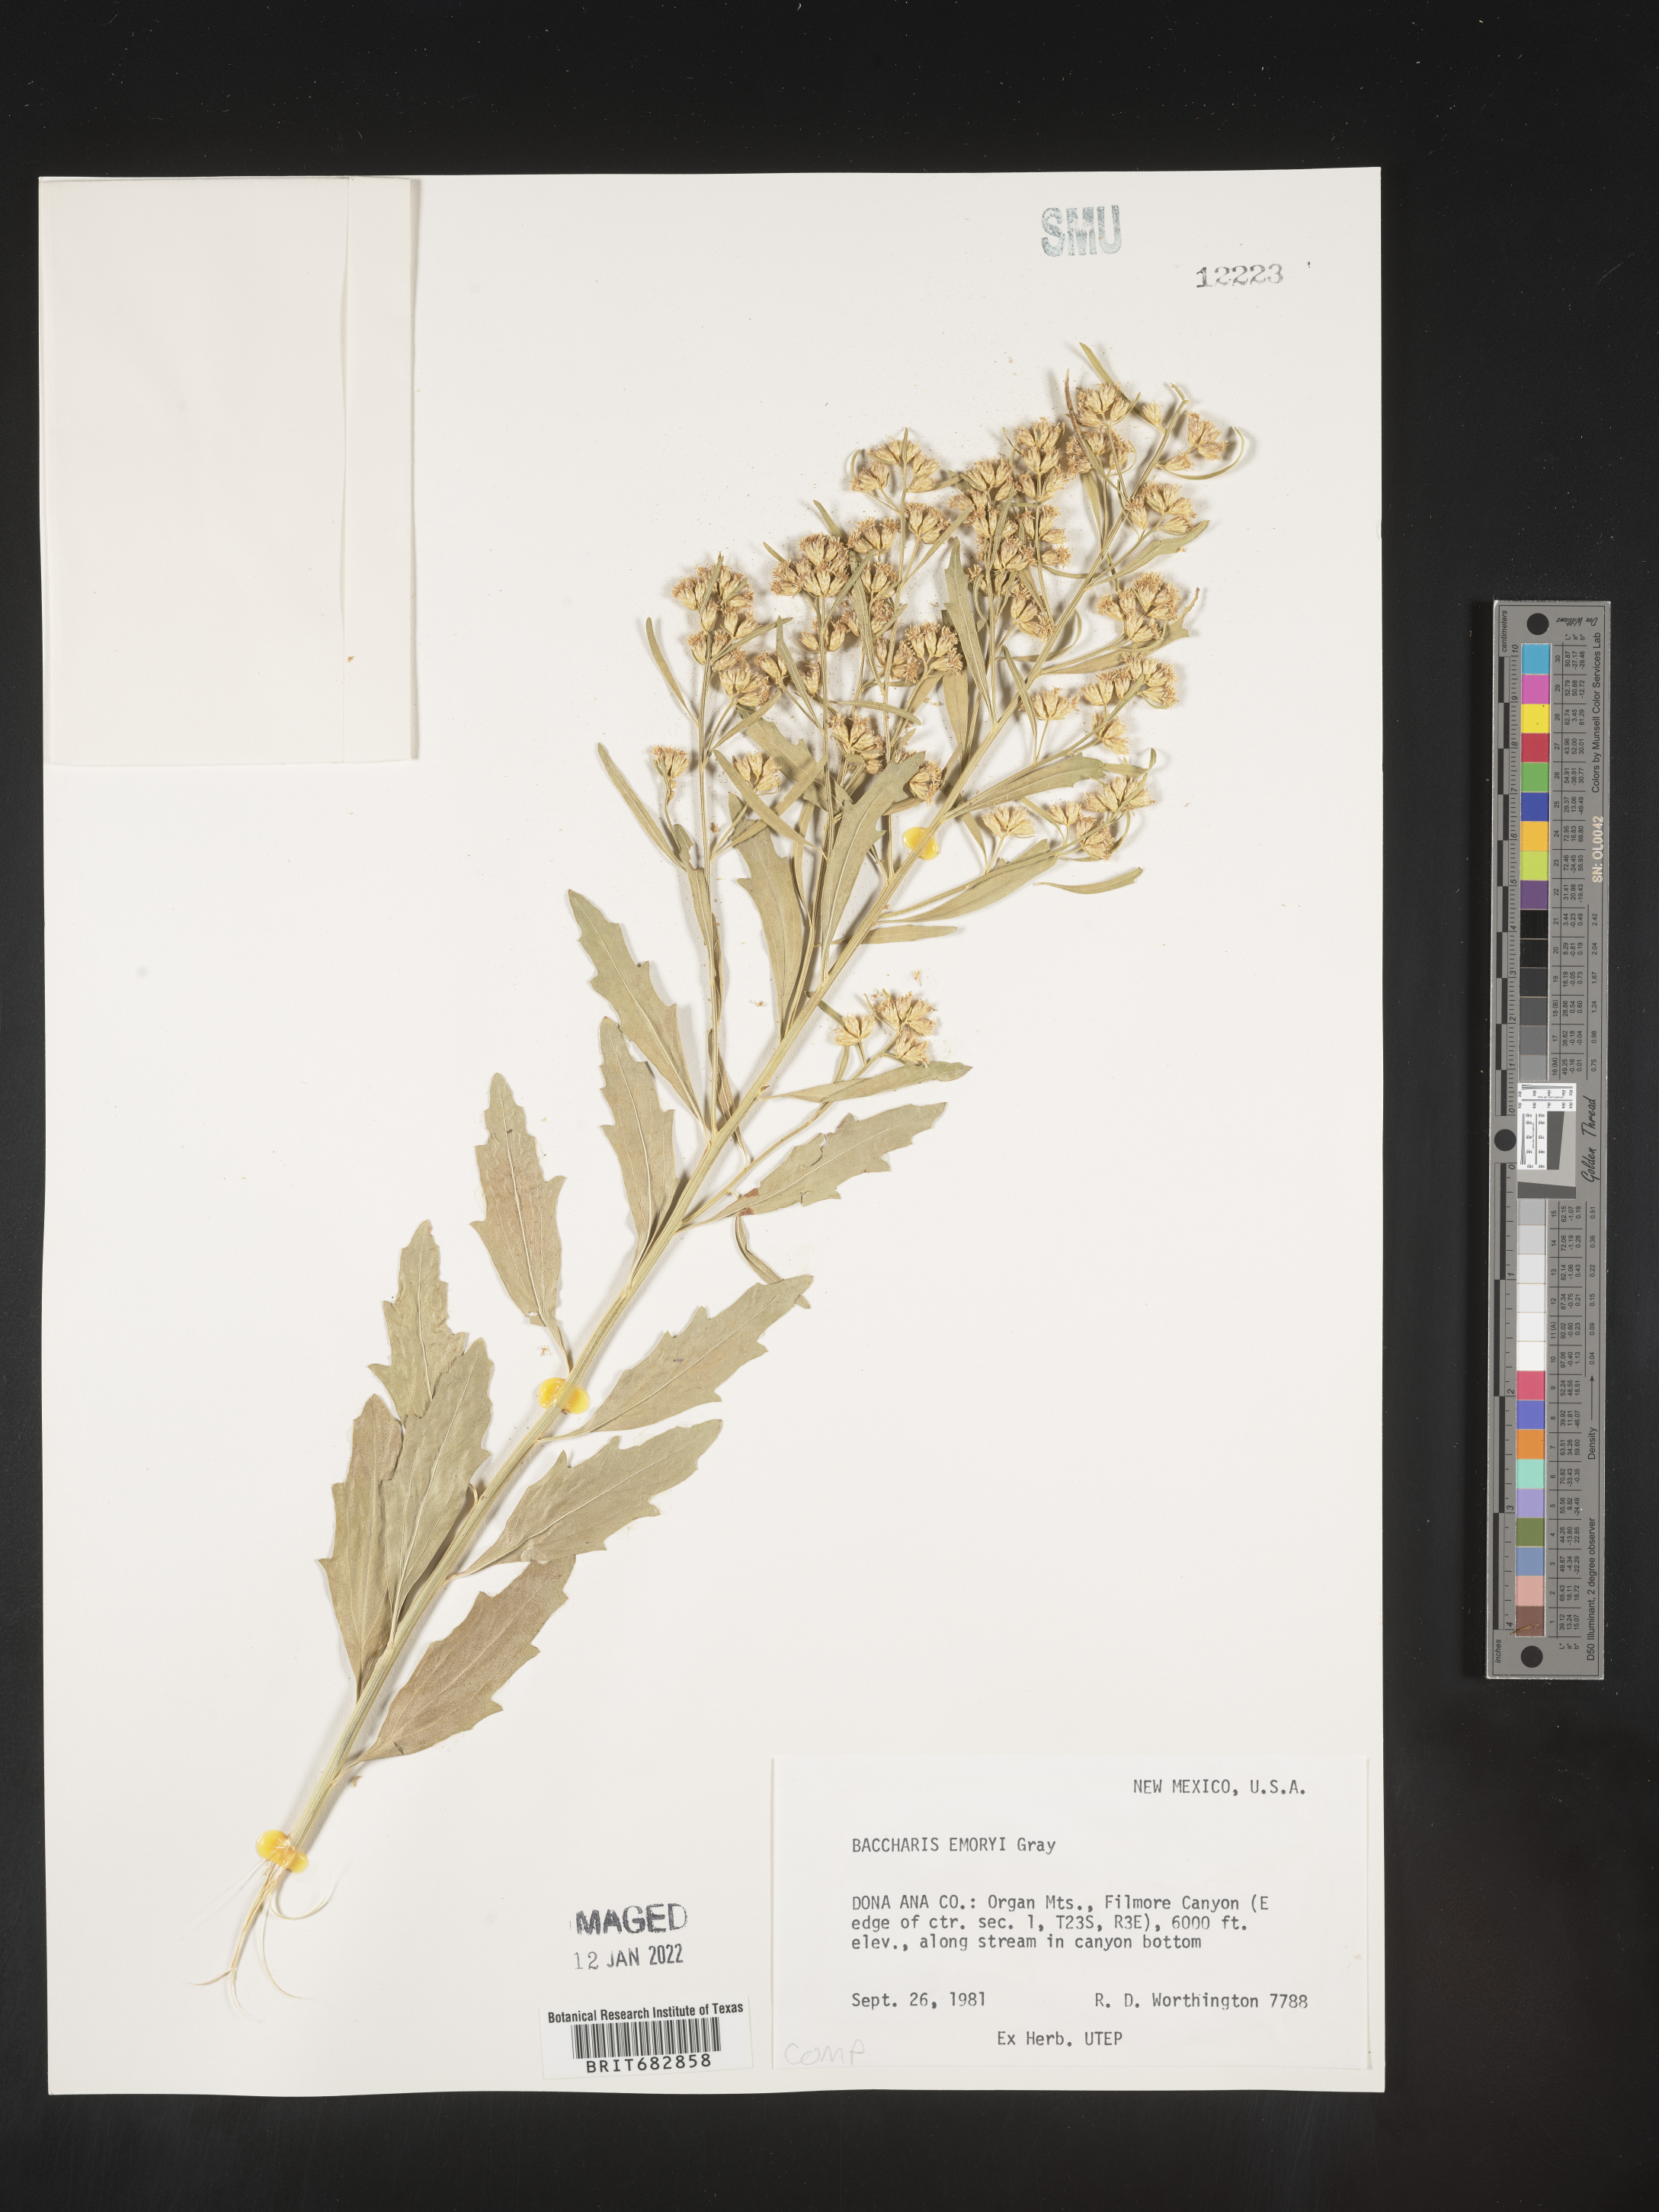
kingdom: Plantae
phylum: Tracheophyta
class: Magnoliopsida
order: Asterales
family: Asteraceae
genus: Baccharis
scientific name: Baccharis salicina
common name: Willow baccharis
